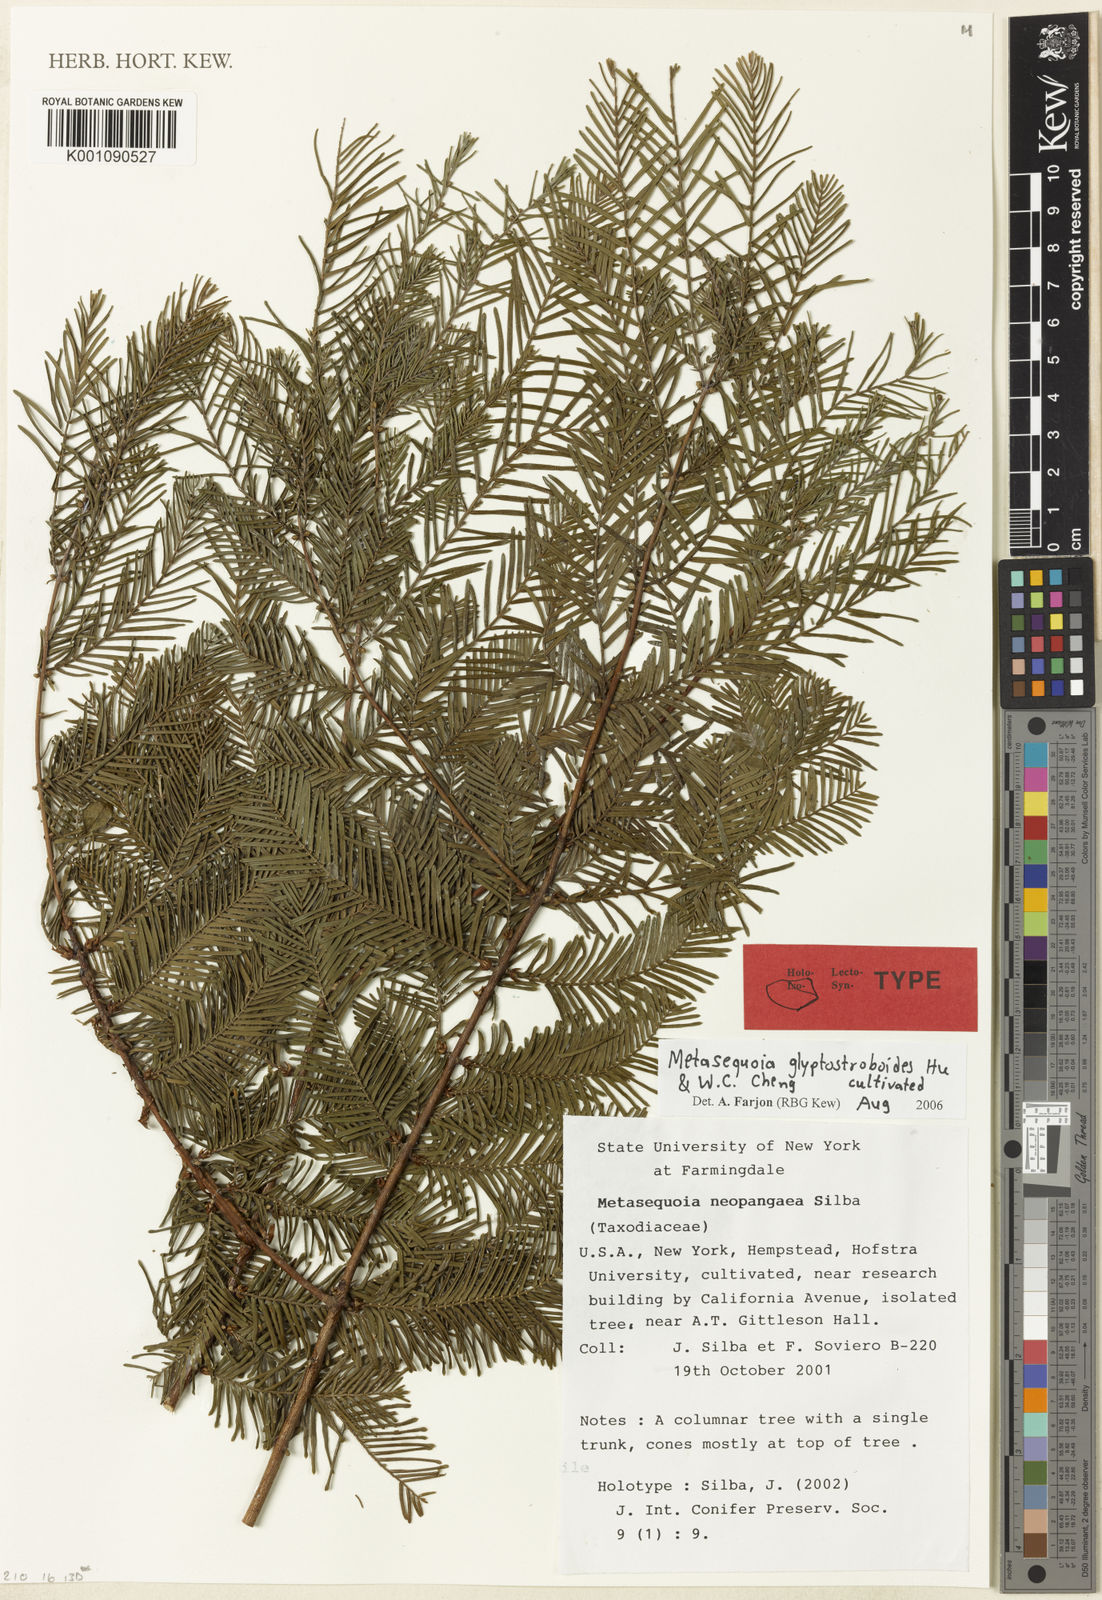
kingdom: Plantae
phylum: Tracheophyta
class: Pinopsida
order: Pinales
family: Cupressaceae
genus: Metasequoia
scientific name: Metasequoia glyptostroboides
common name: Dawn redwood
